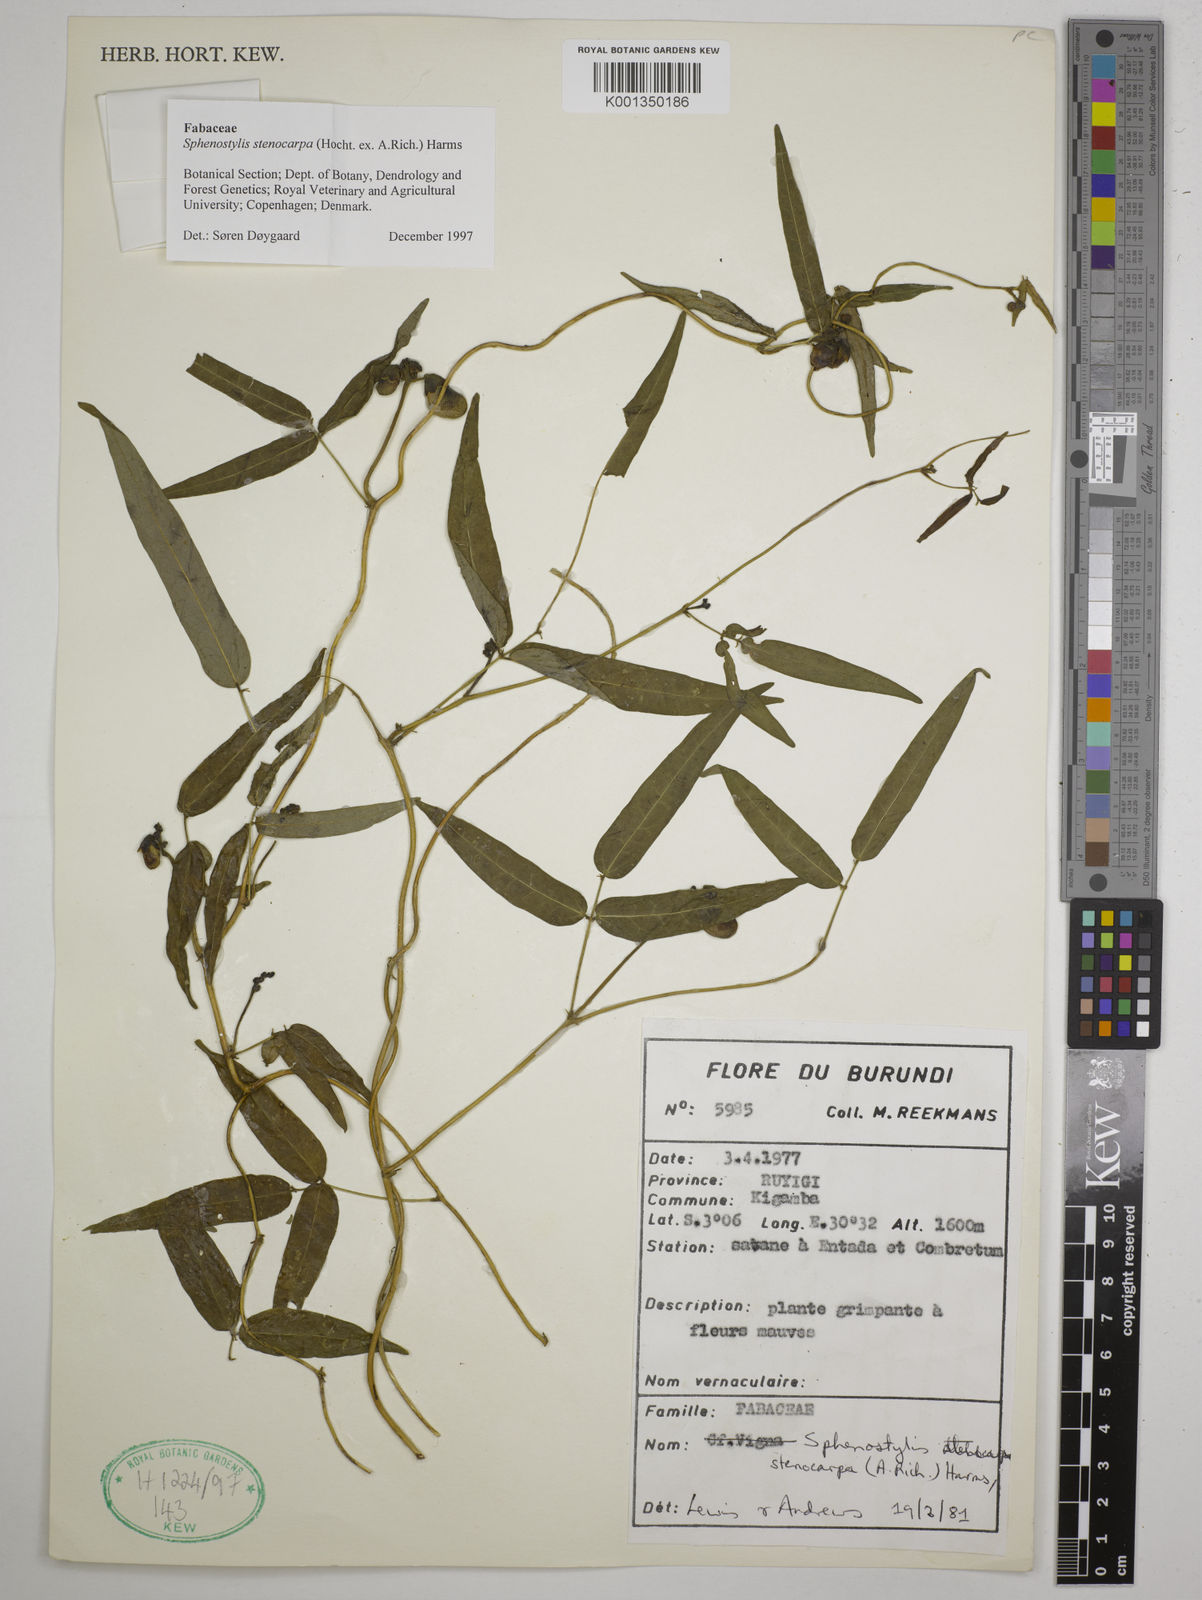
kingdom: Plantae
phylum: Tracheophyta
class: Magnoliopsida
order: Fabales
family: Fabaceae
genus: Sphenostylis
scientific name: Sphenostylis stenocarpa
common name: Yam-pea
